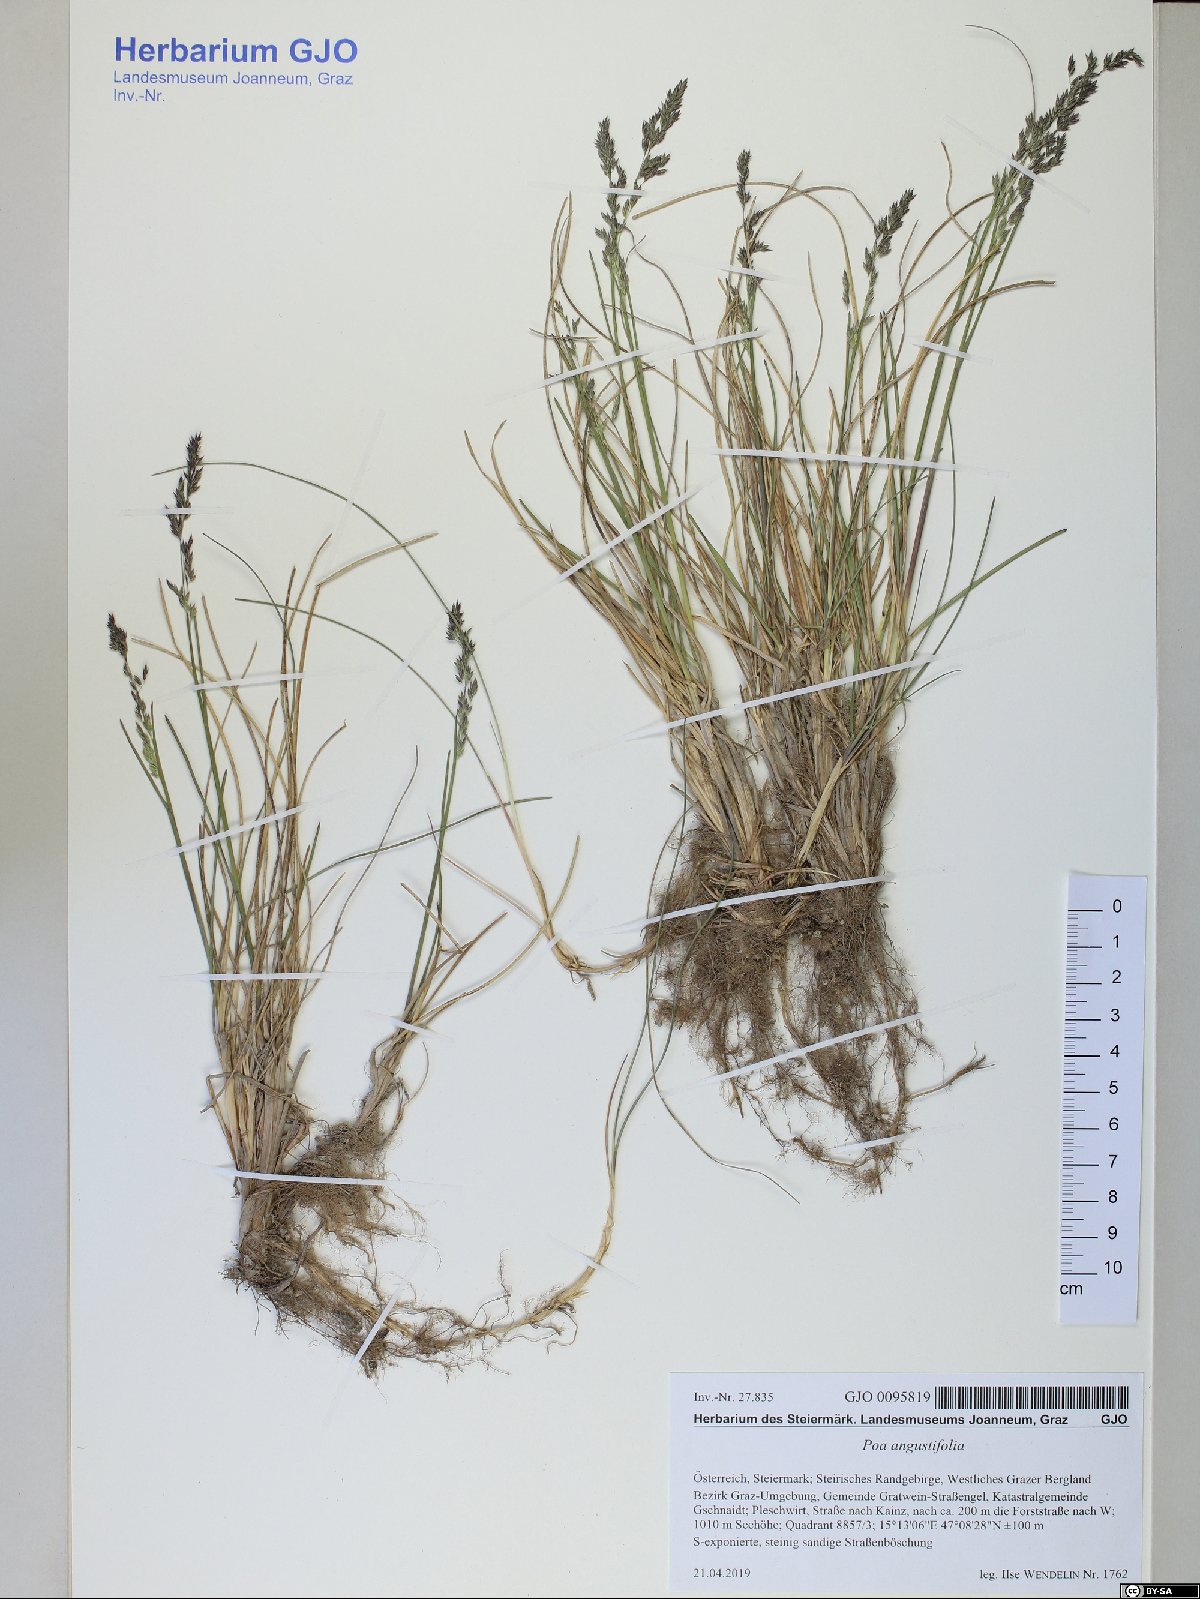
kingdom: Plantae
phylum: Tracheophyta
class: Liliopsida
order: Poales
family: Poaceae
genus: Poa
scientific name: Poa angustifolia
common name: Narrow-leaved meadow-grass
